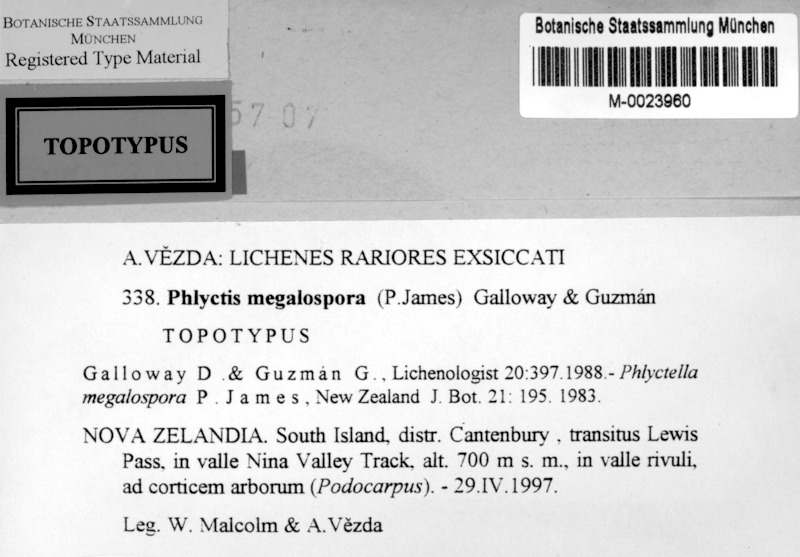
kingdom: Fungi
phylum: Ascomycota
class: Lecanoromycetes
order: Ostropales
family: Phlyctidaceae
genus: Phlyctis
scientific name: Phlyctis
